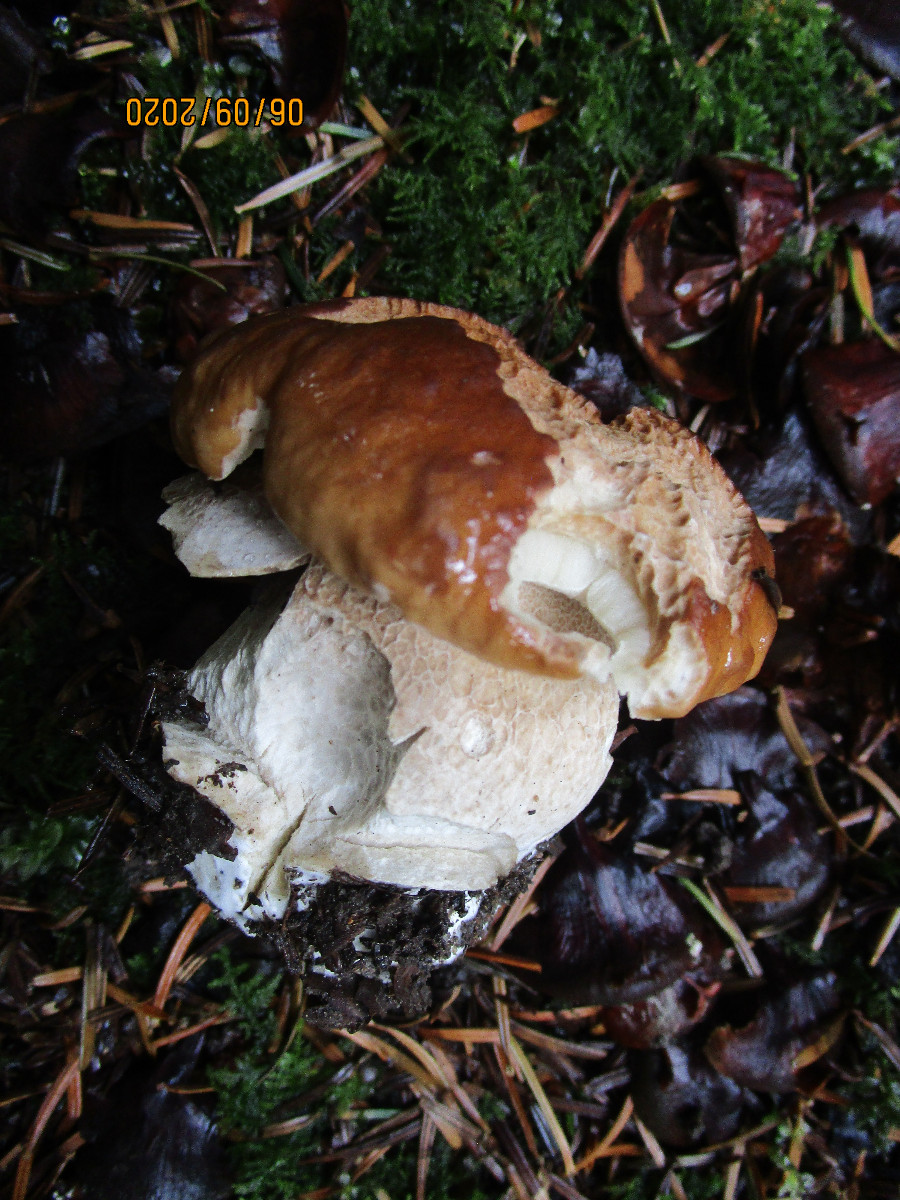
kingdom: Fungi
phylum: Basidiomycota
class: Agaricomycetes
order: Boletales
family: Boletaceae
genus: Boletus
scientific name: Boletus edulis
